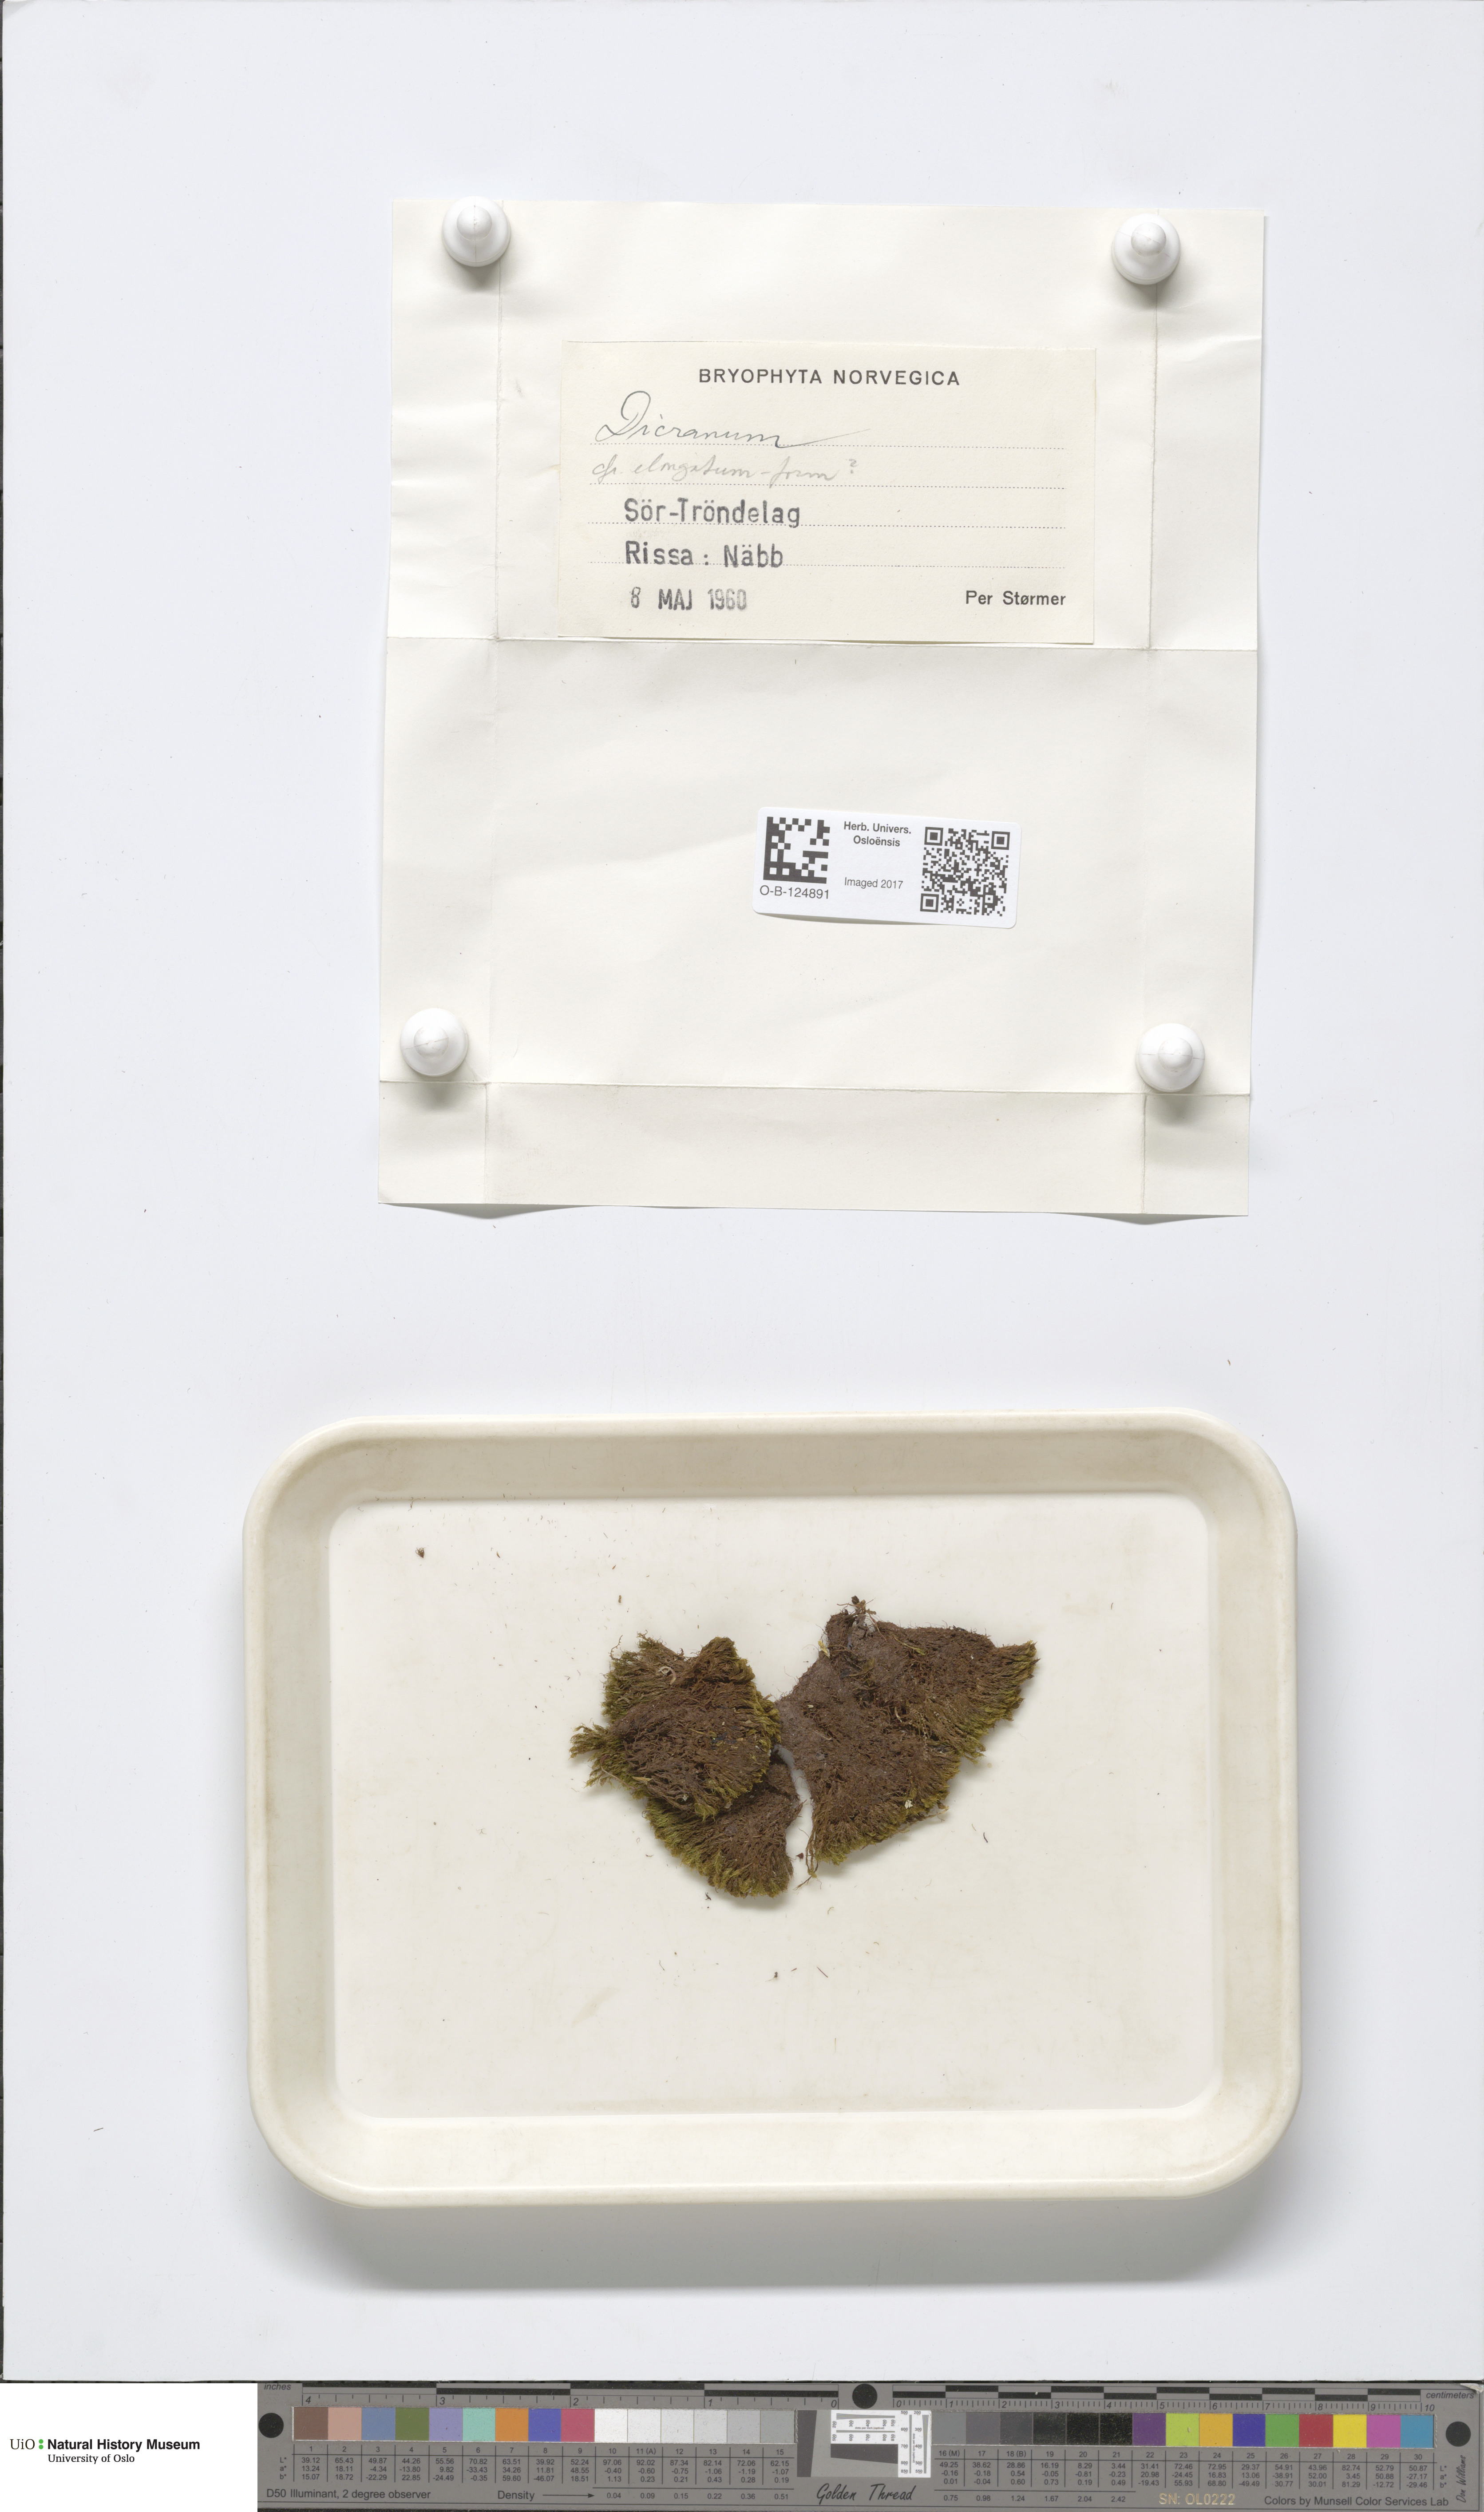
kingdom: Plantae
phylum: Bryophyta
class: Bryopsida
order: Dicranales
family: Dicranaceae
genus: Dicranum
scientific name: Dicranum elongatum
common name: Long-forked broom moss
